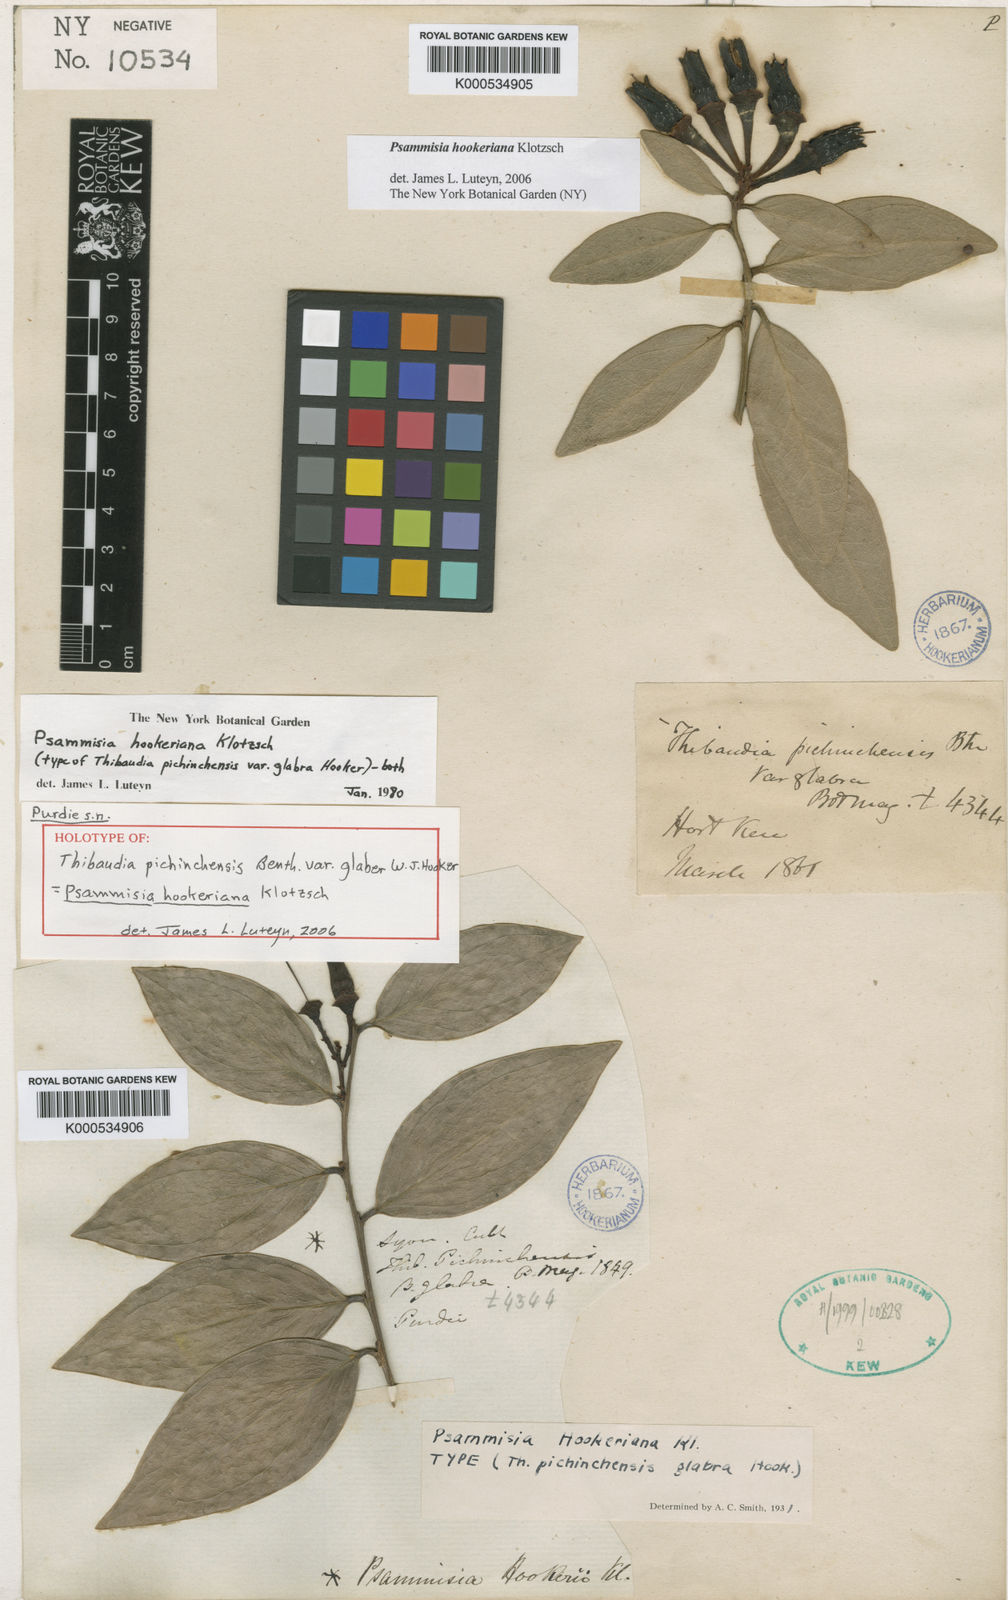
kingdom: Plantae
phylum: Tracheophyta
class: Magnoliopsida
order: Ericales
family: Ericaceae
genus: Psammisia
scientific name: Psammisia hookeriana
